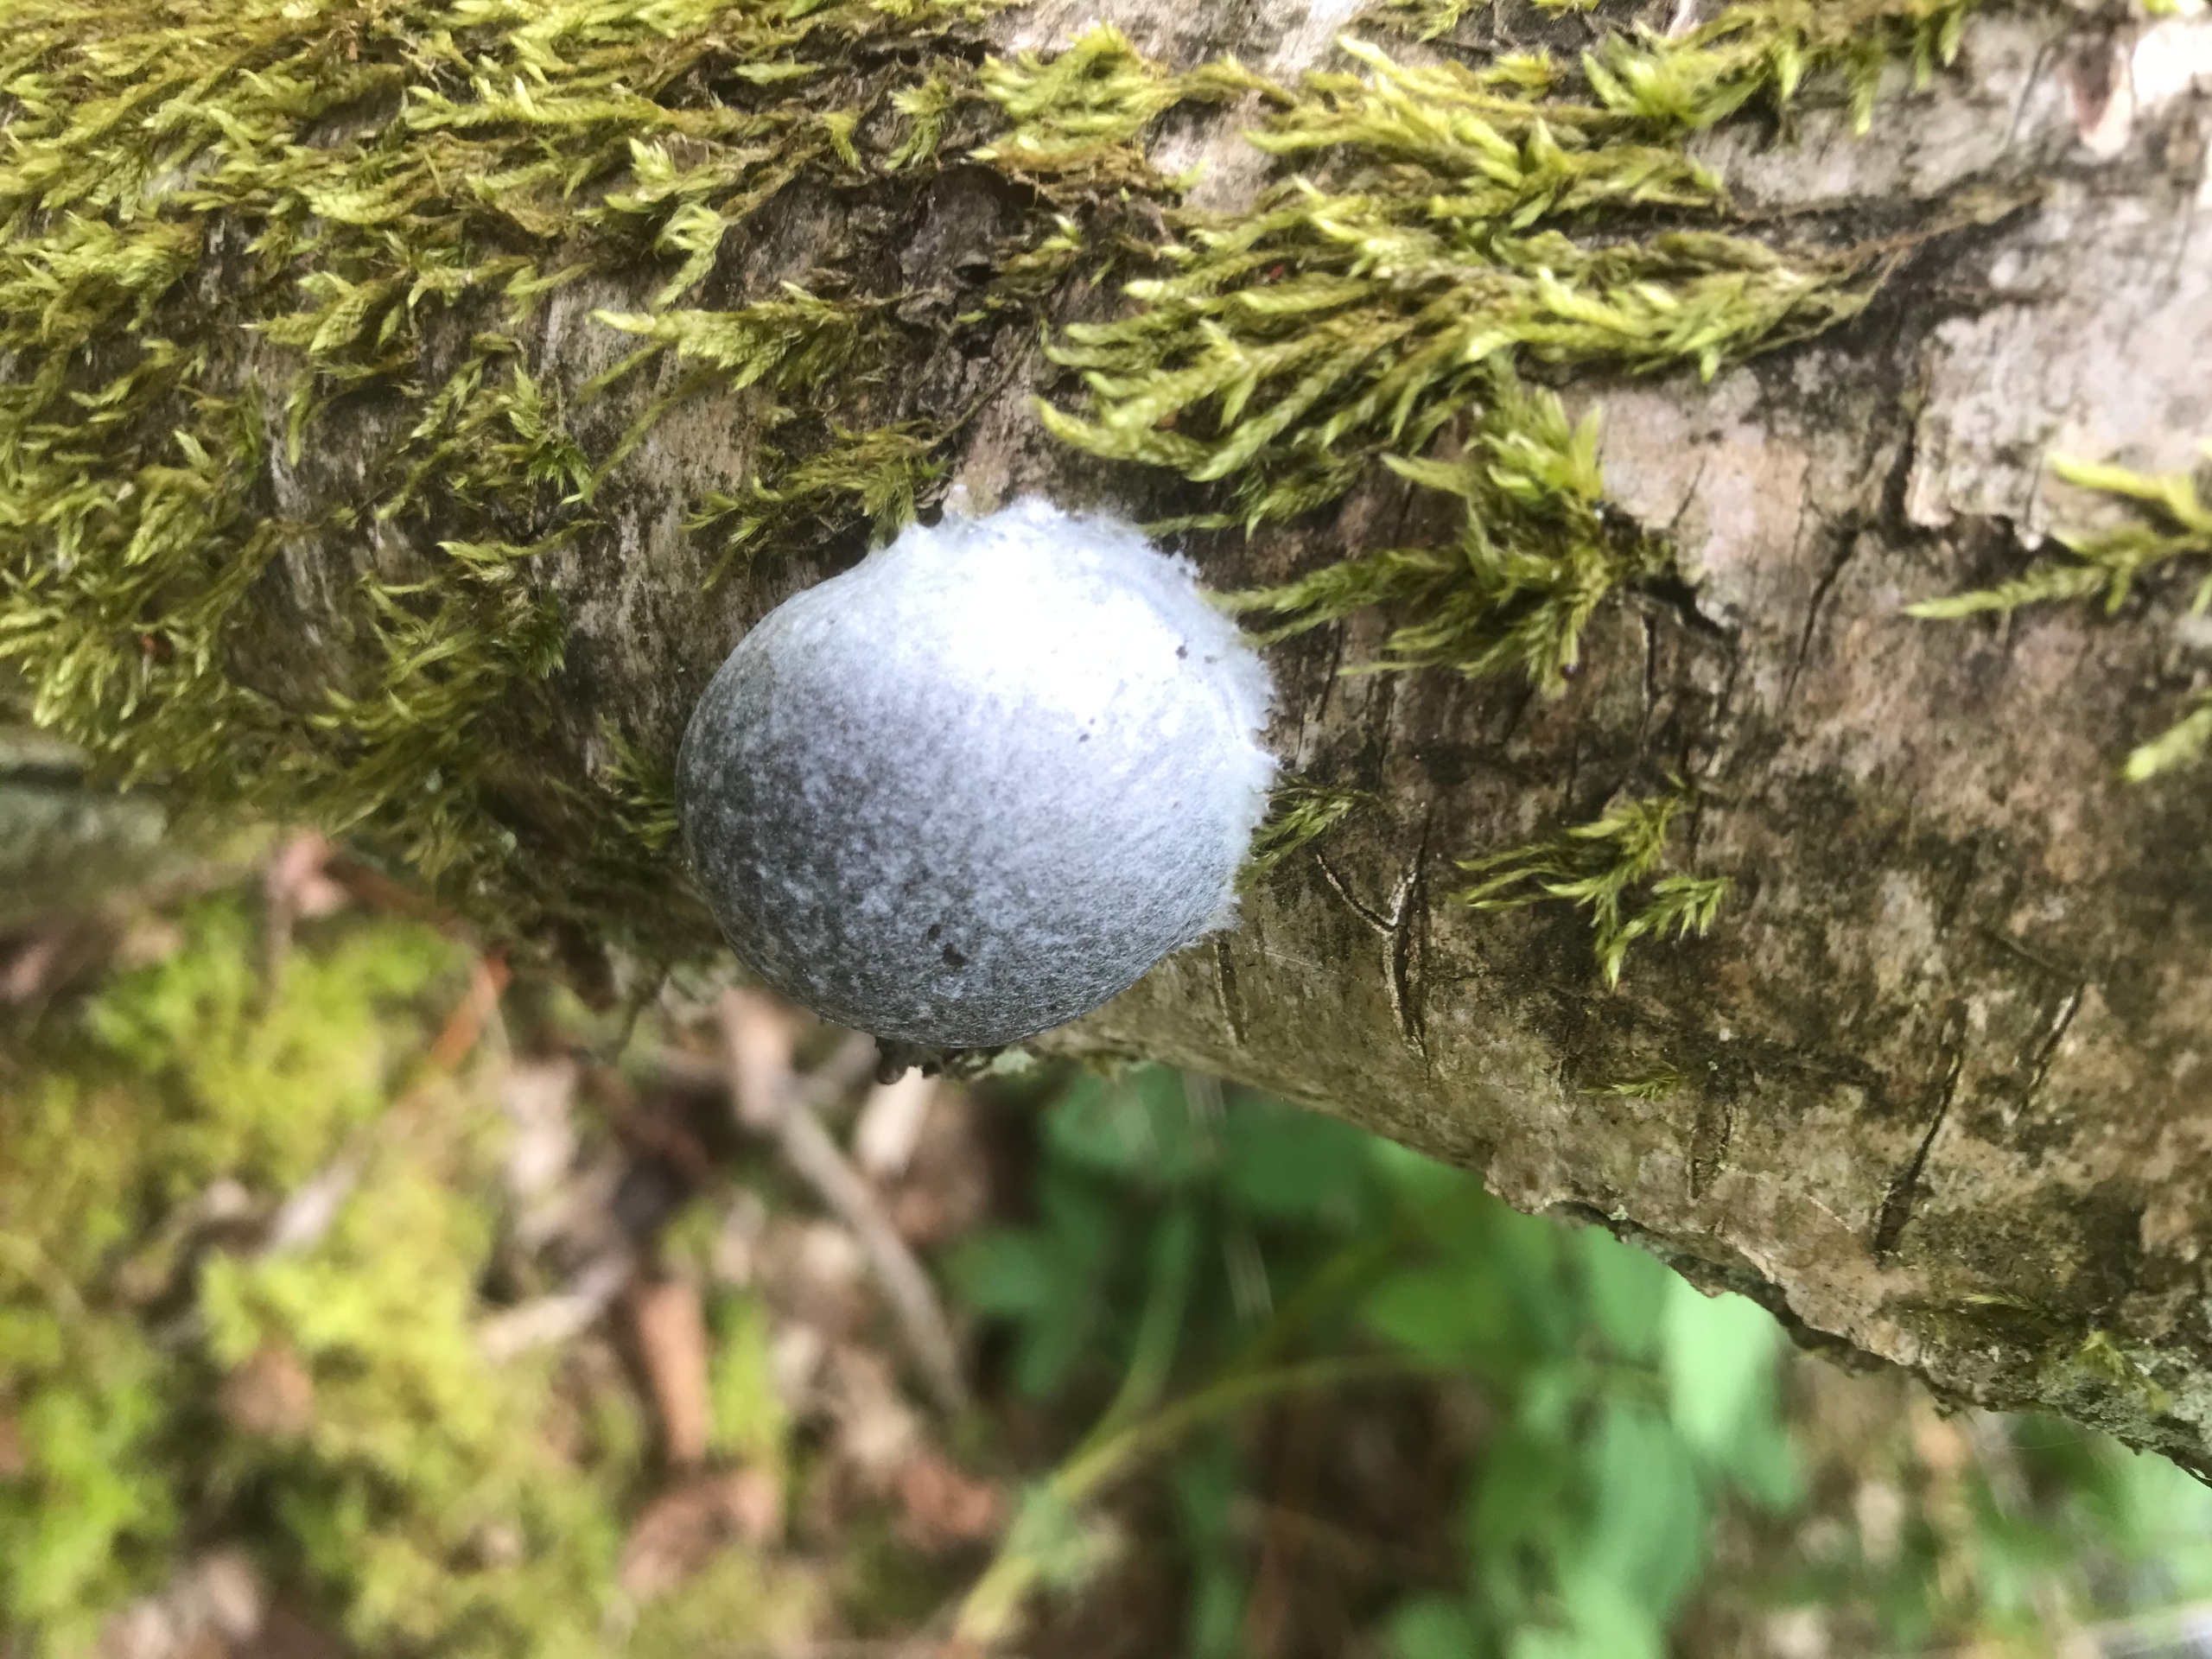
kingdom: Protozoa
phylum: Mycetozoa
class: Myxomycetes
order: Cribrariales
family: Tubiferaceae
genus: Reticularia
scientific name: Reticularia lycoperdon
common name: Skinnende støvpude
